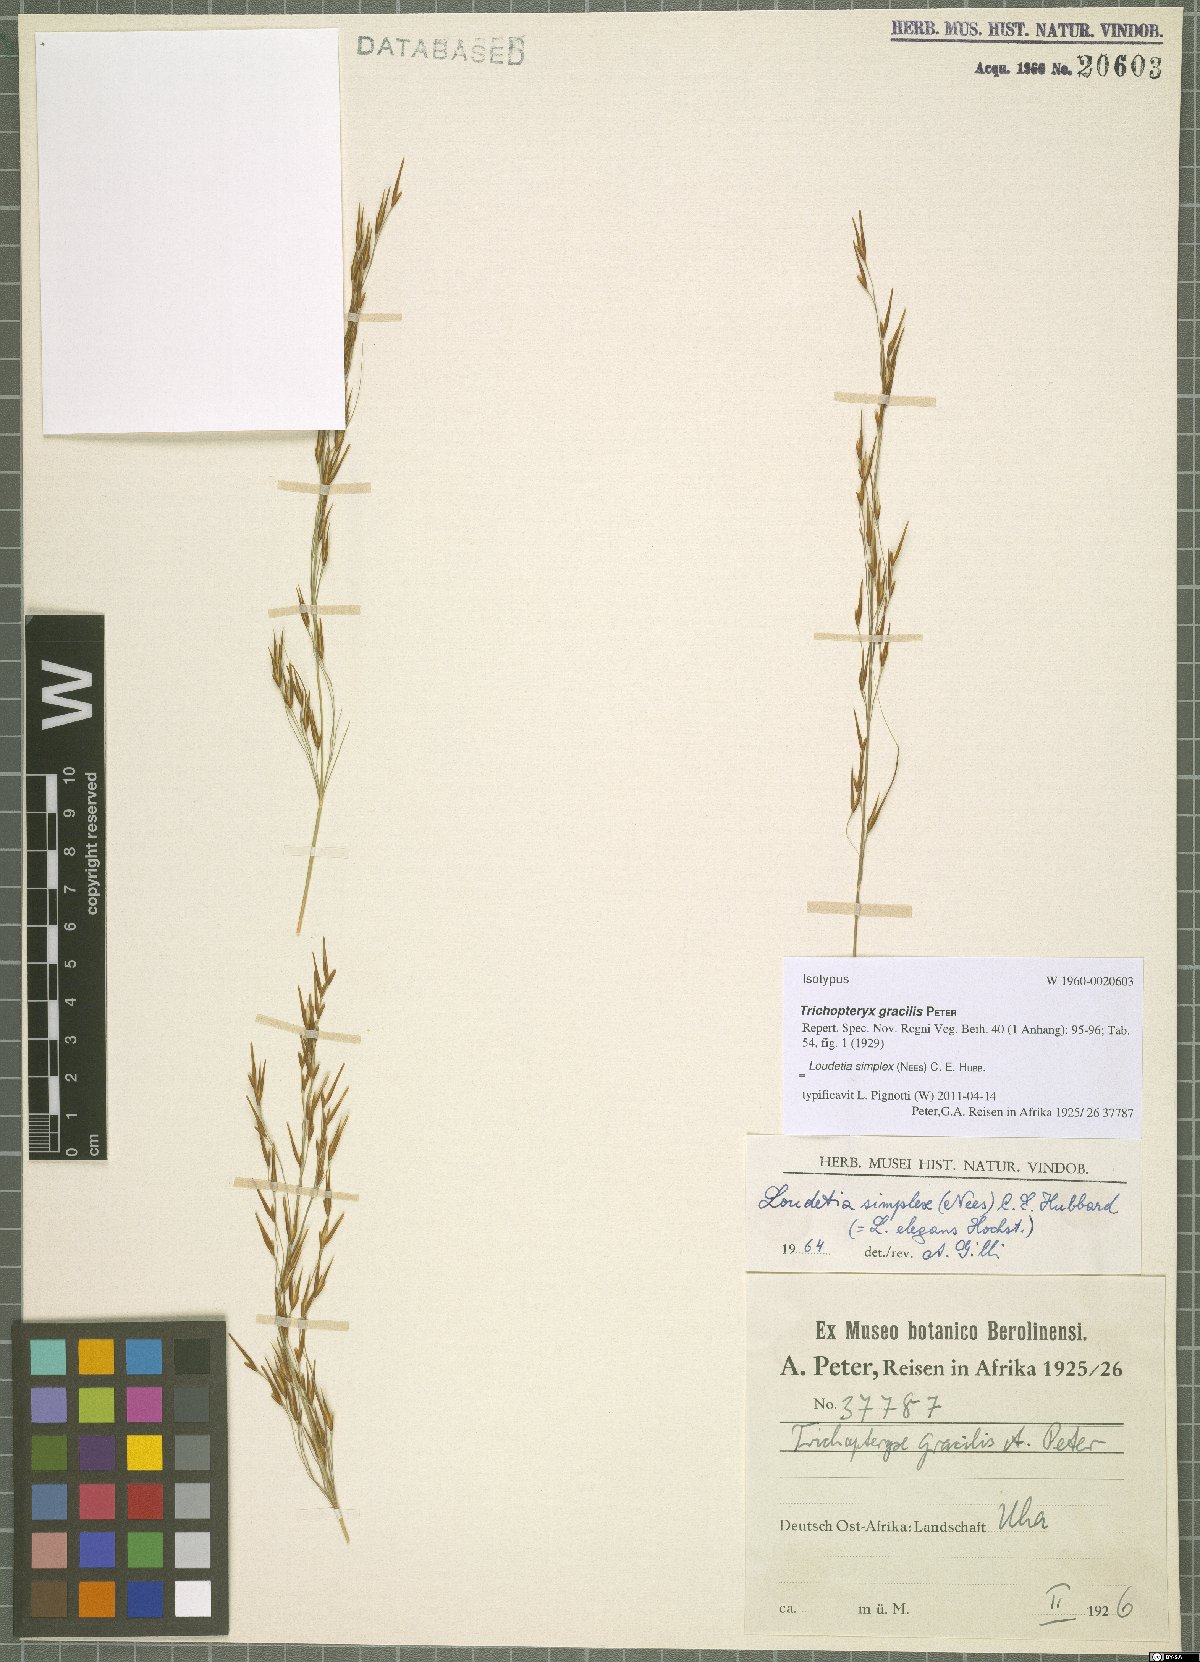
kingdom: Plantae
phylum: Tracheophyta
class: Liliopsida
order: Poales
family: Poaceae
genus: Loudetia
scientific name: Loudetia simplex
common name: Common russet grass
